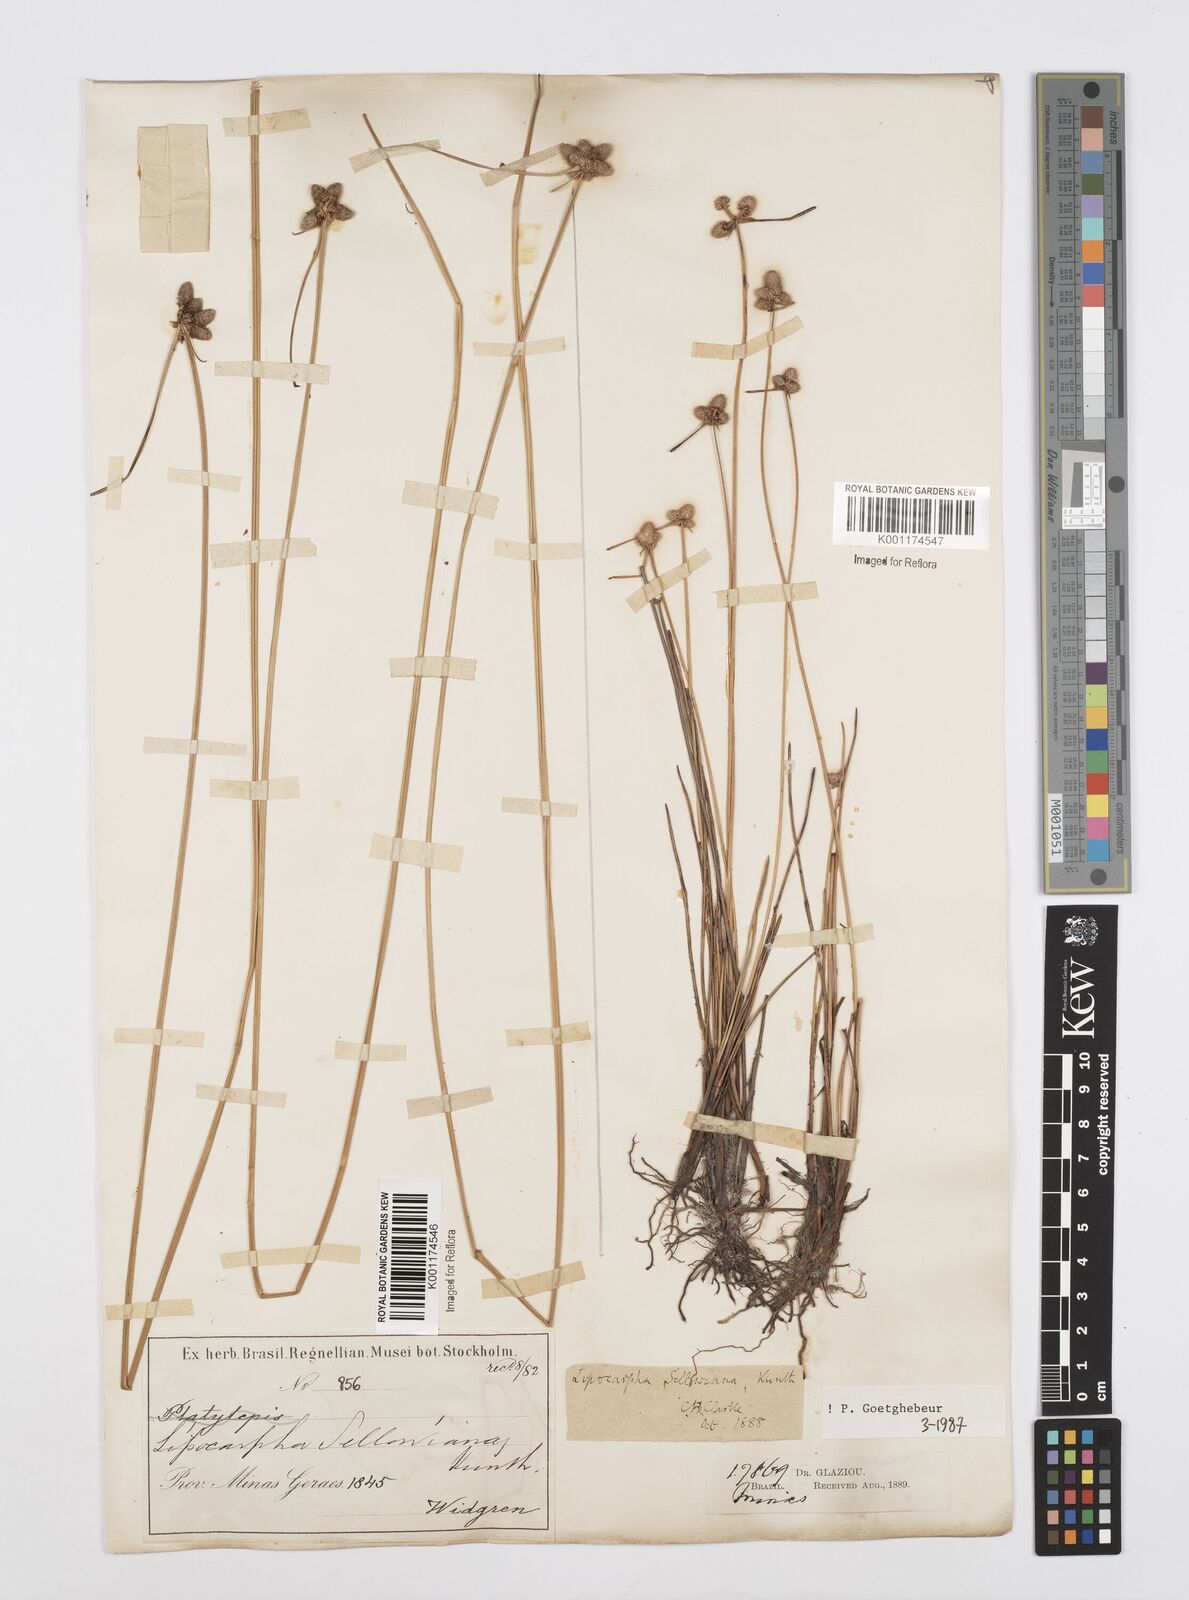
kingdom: Plantae
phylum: Tracheophyta
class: Liliopsida
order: Poales
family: Cyperaceae
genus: Cyperus
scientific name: Cyperus lanceolatus
